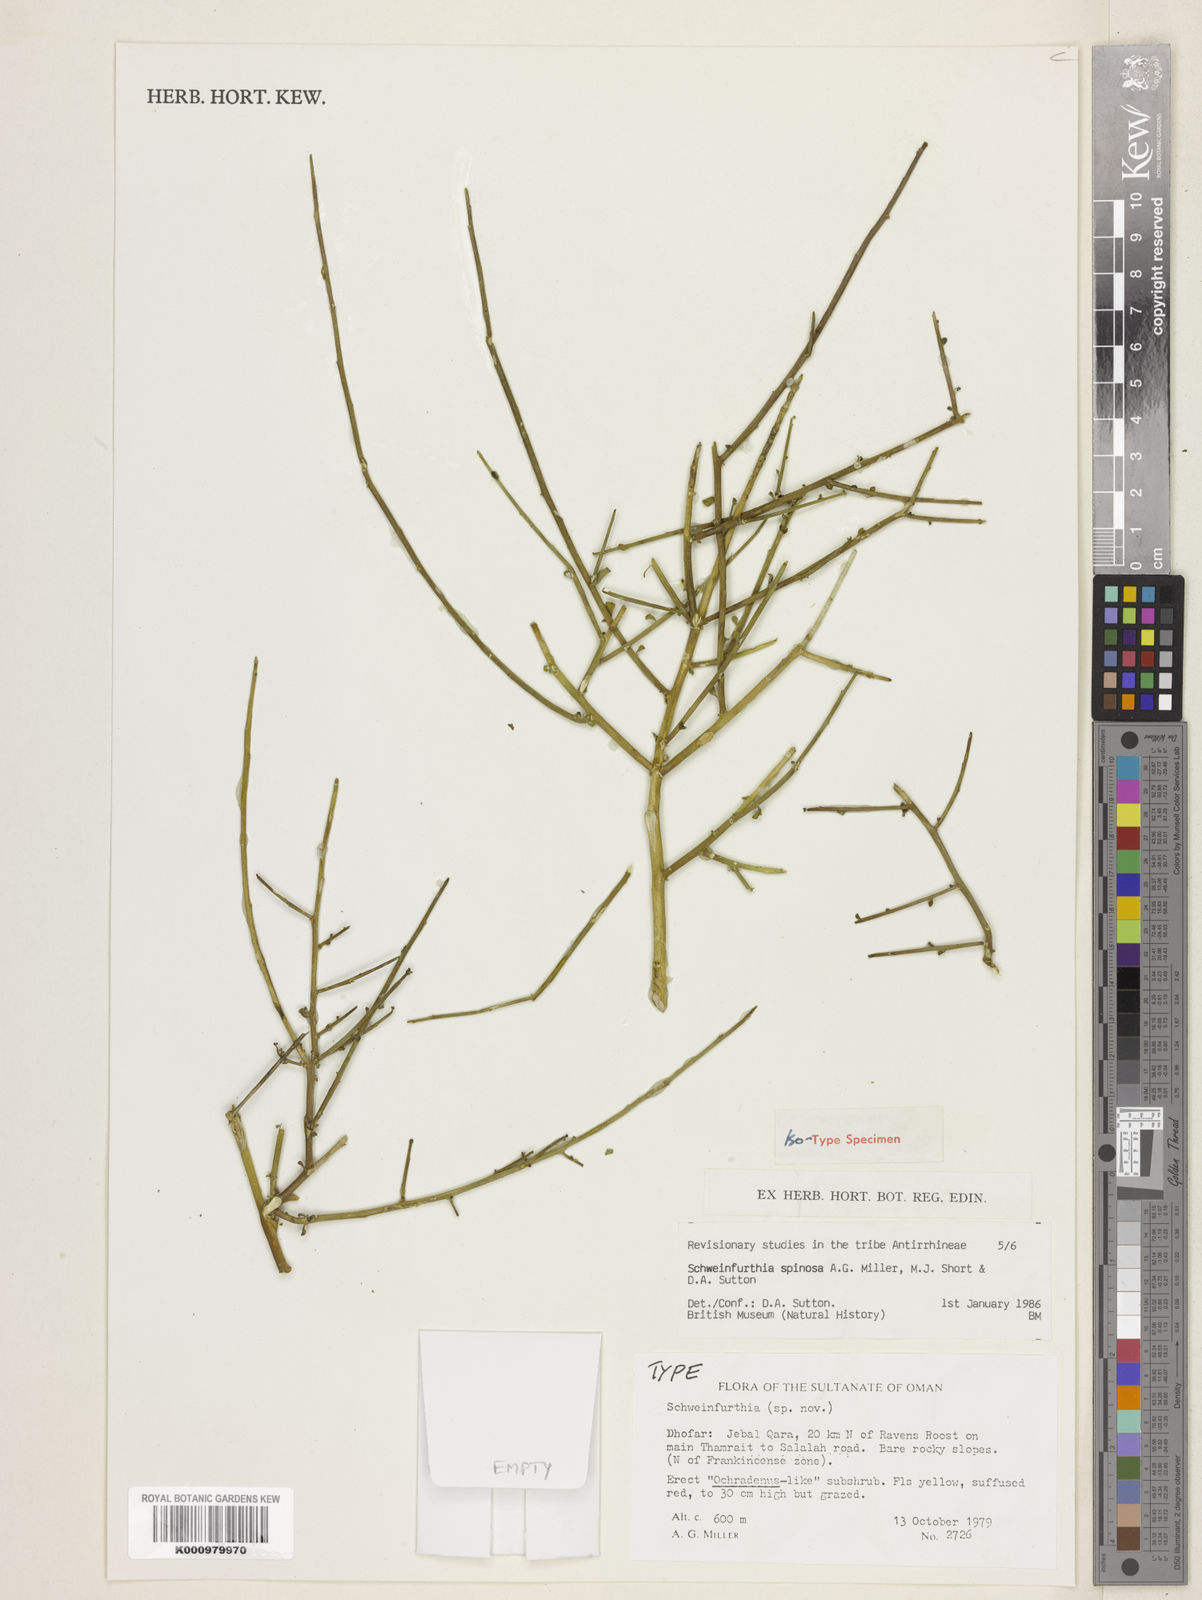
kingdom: Plantae
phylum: Tracheophyta
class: Magnoliopsida
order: Lamiales
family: Plantaginaceae
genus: Schweinfurthia
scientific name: Schweinfurthia
